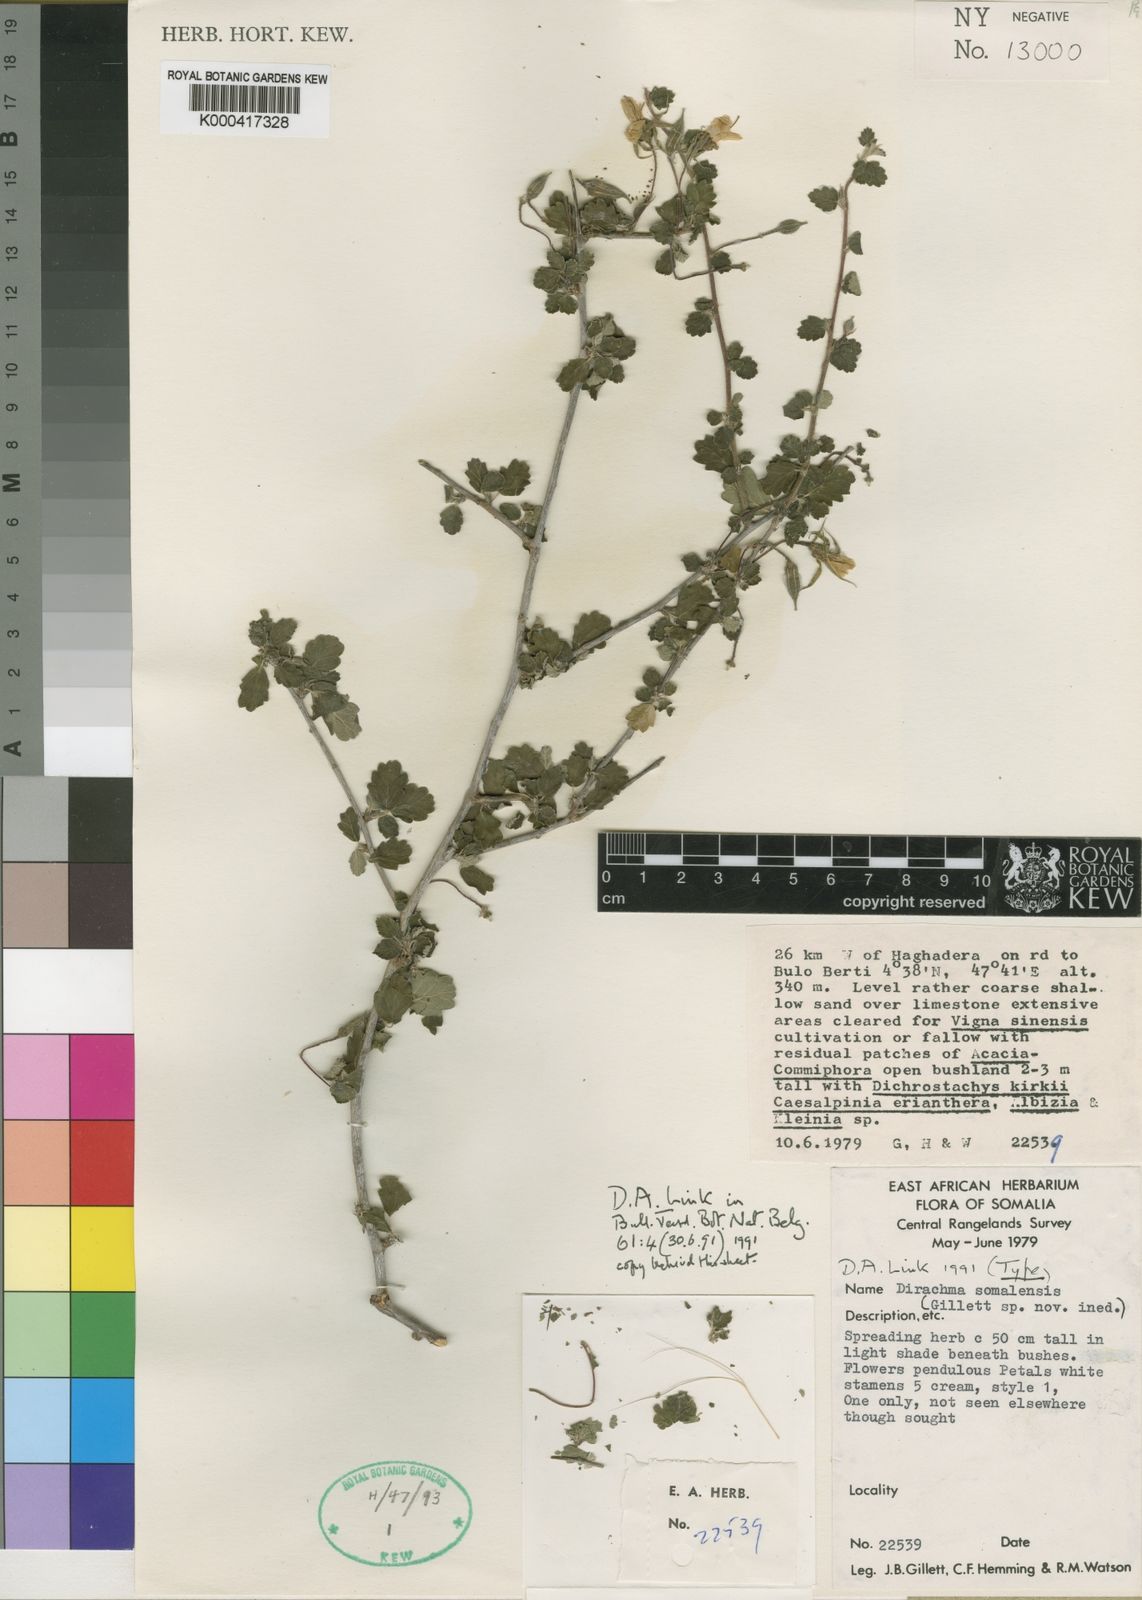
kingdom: Plantae
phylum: Tracheophyta
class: Magnoliopsida
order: Rosales
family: Dirachmaceae
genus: Dirachma
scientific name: Dirachma somalensis
